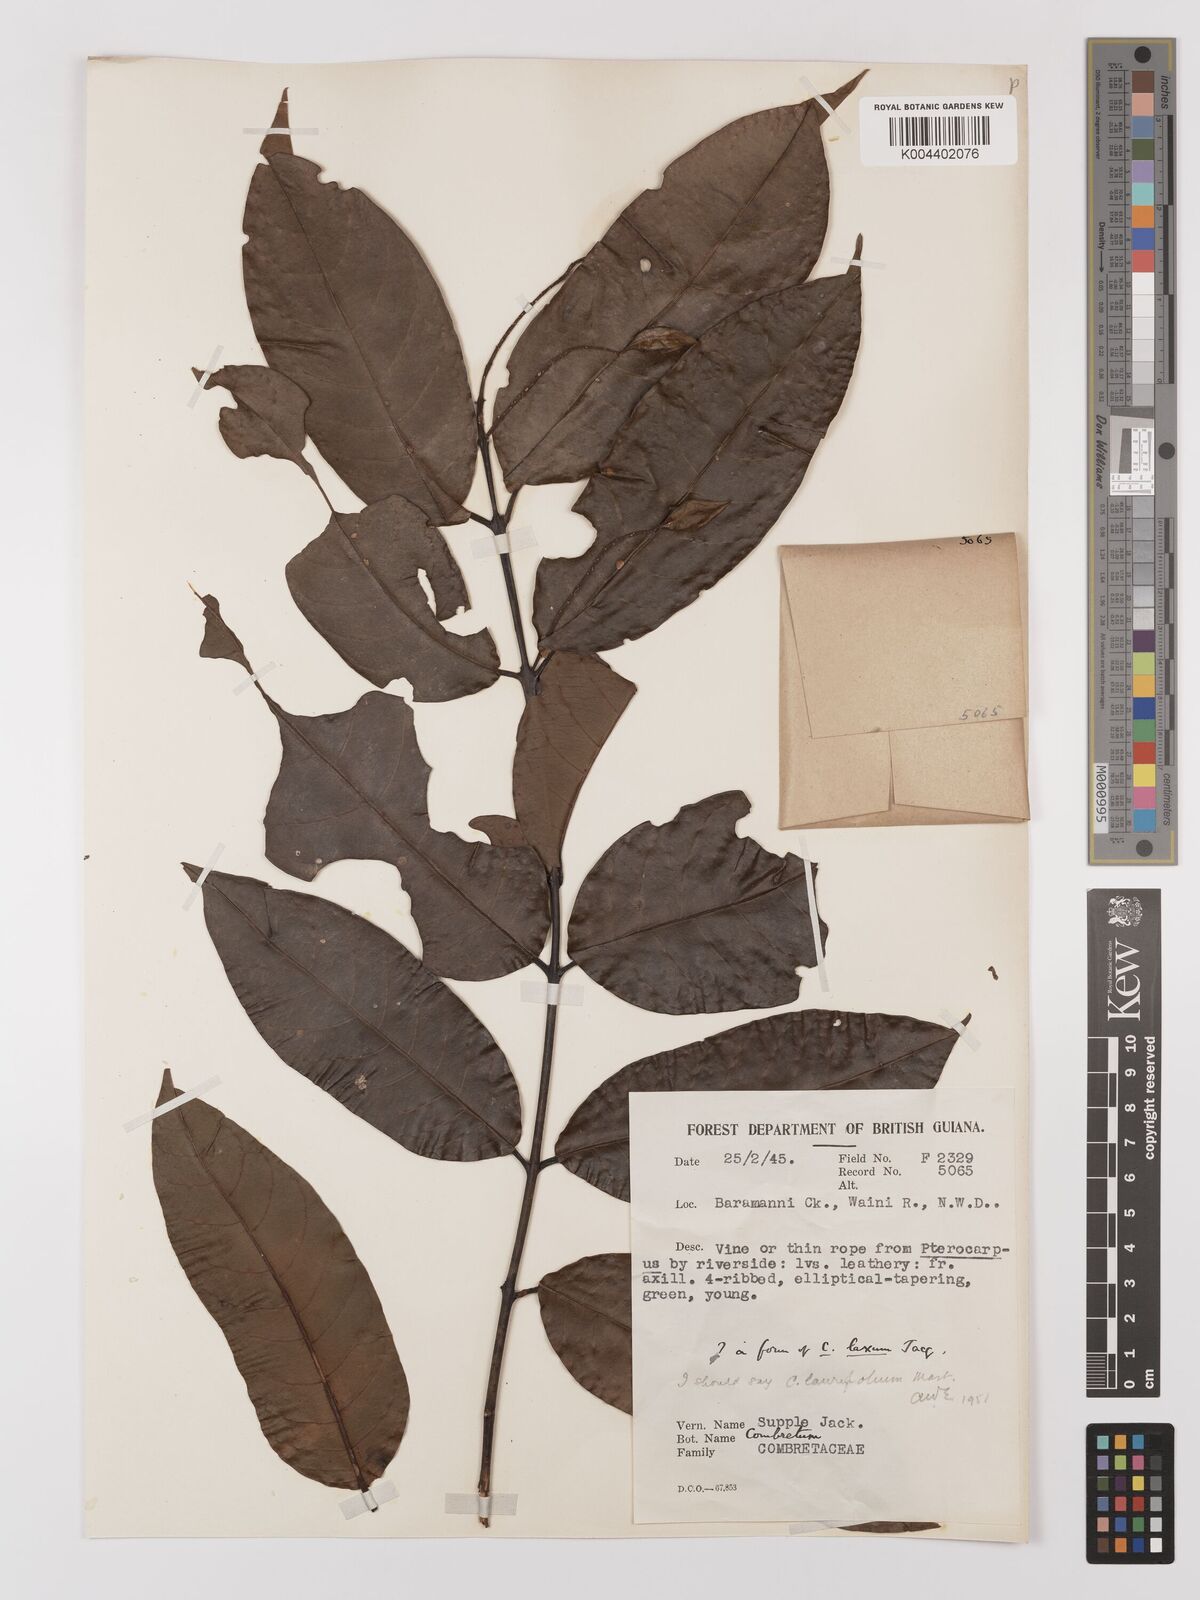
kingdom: Plantae
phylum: Tracheophyta
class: Magnoliopsida
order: Myrtales
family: Combretaceae
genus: Combretum
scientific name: Combretum
